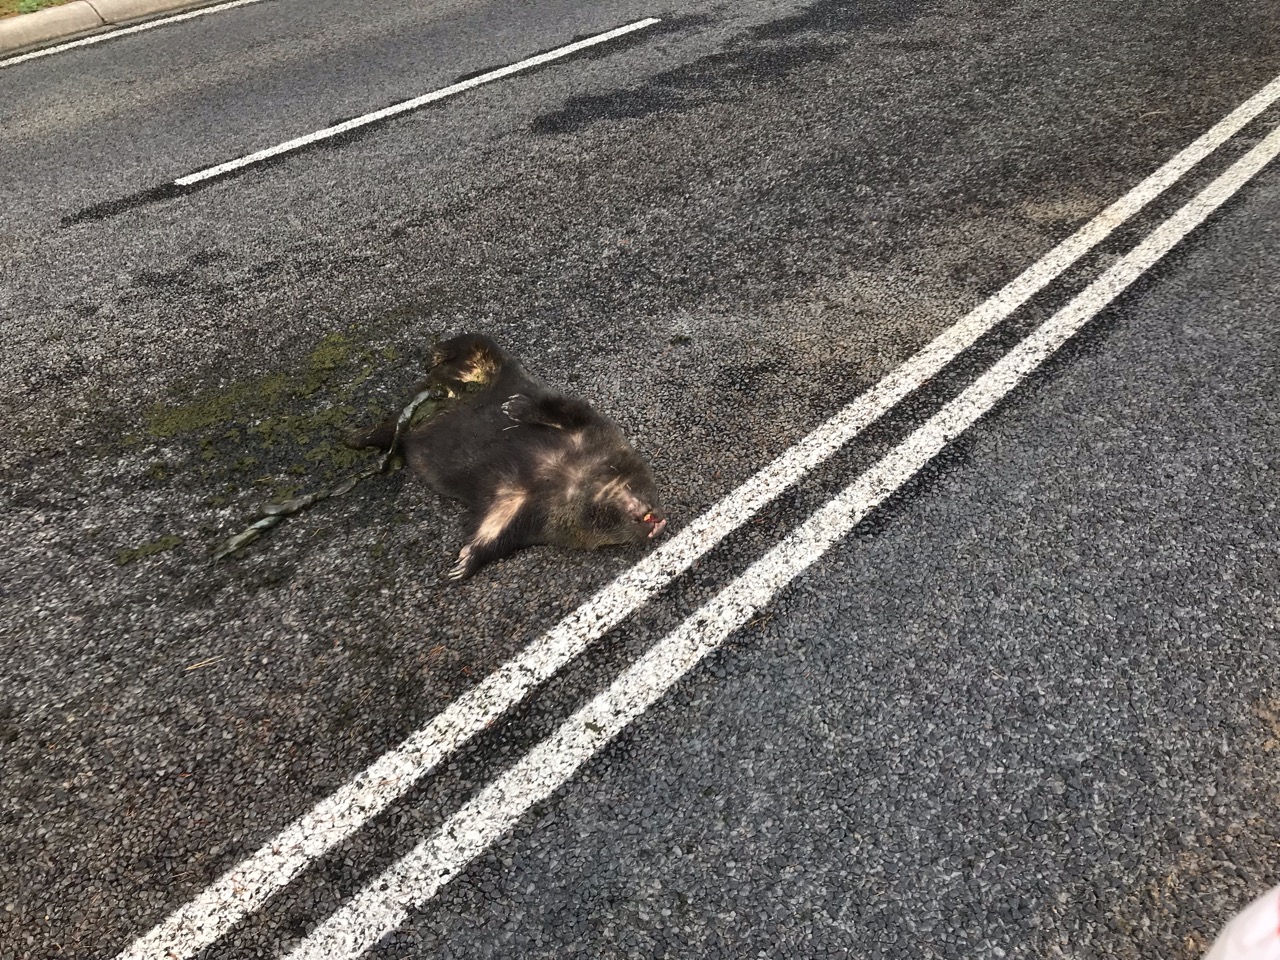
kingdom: Animalia
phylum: Chordata
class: Mammalia
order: Diprotodontia
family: Vombatidae
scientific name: Vombatidae
